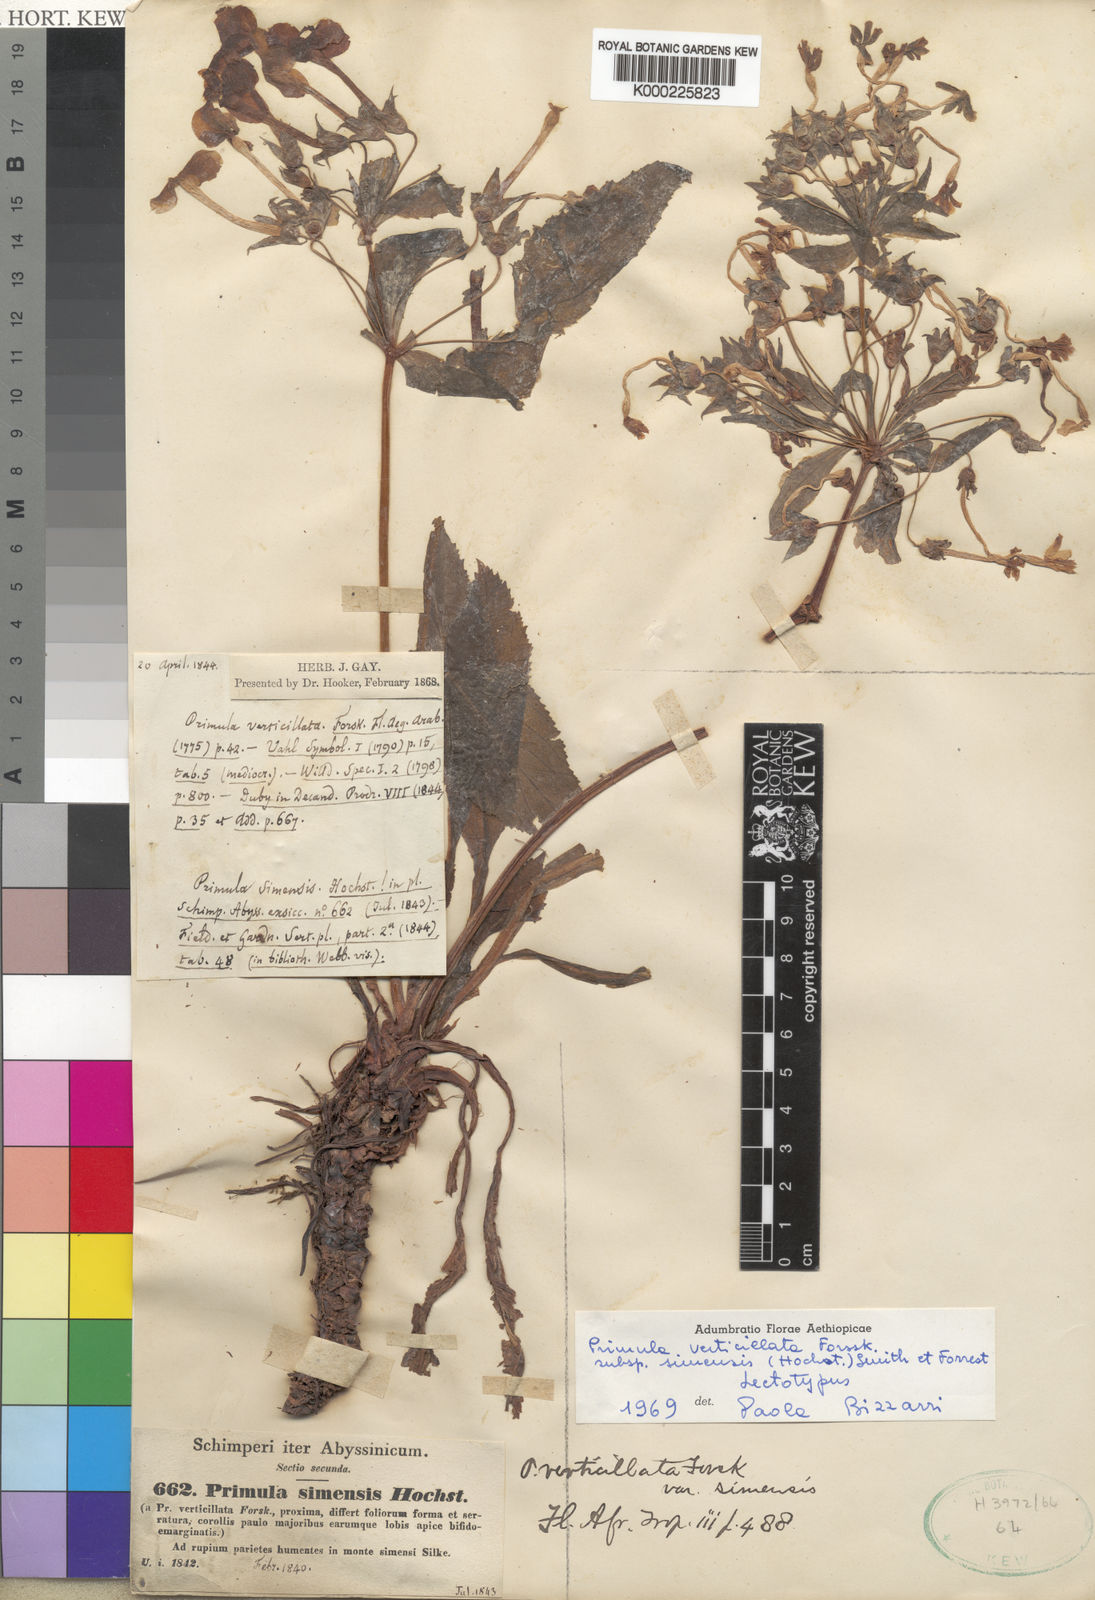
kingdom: Plantae
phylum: Tracheophyta
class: Magnoliopsida
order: Ericales
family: Primulaceae
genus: Evotrochis
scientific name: Evotrochis verticillata
